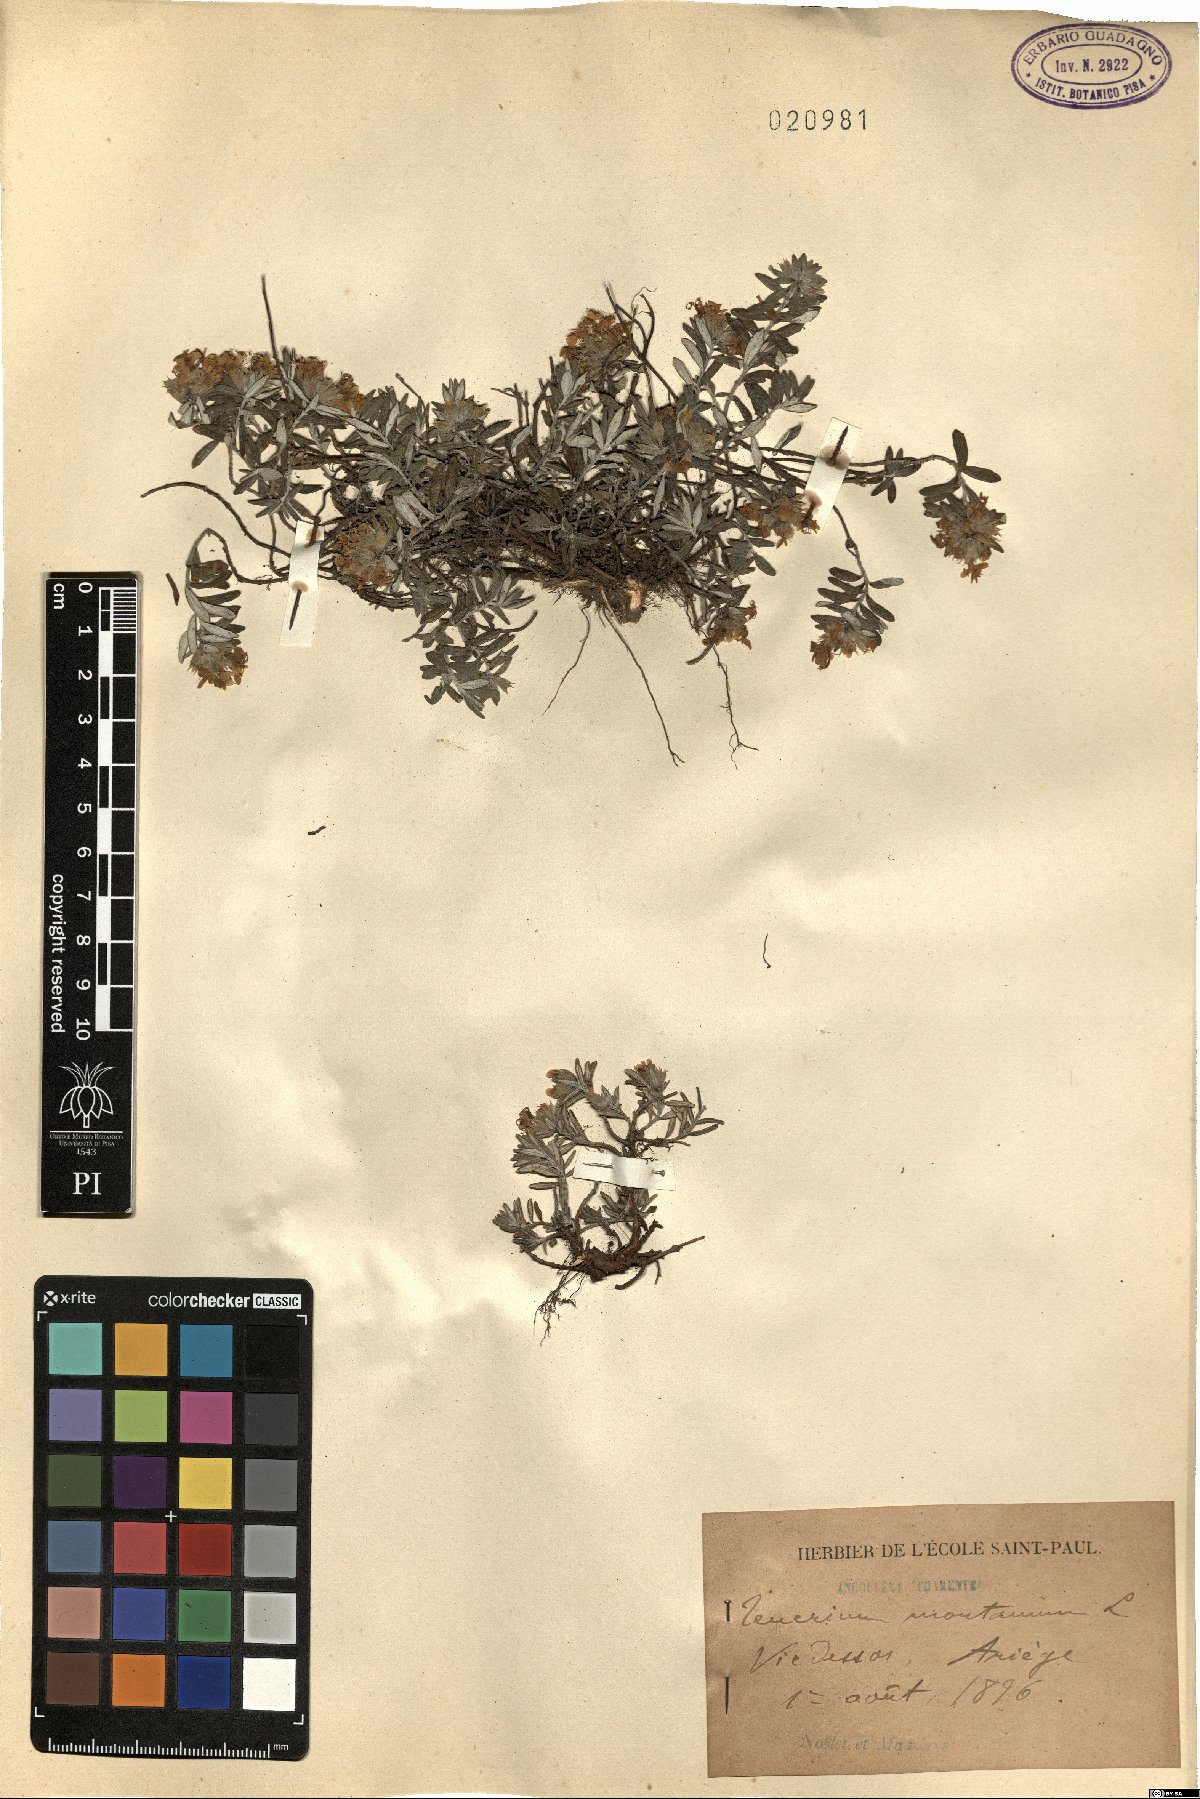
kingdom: Plantae
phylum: Tracheophyta
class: Magnoliopsida
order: Lamiales
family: Lamiaceae
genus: Teucrium
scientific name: Teucrium montanum
